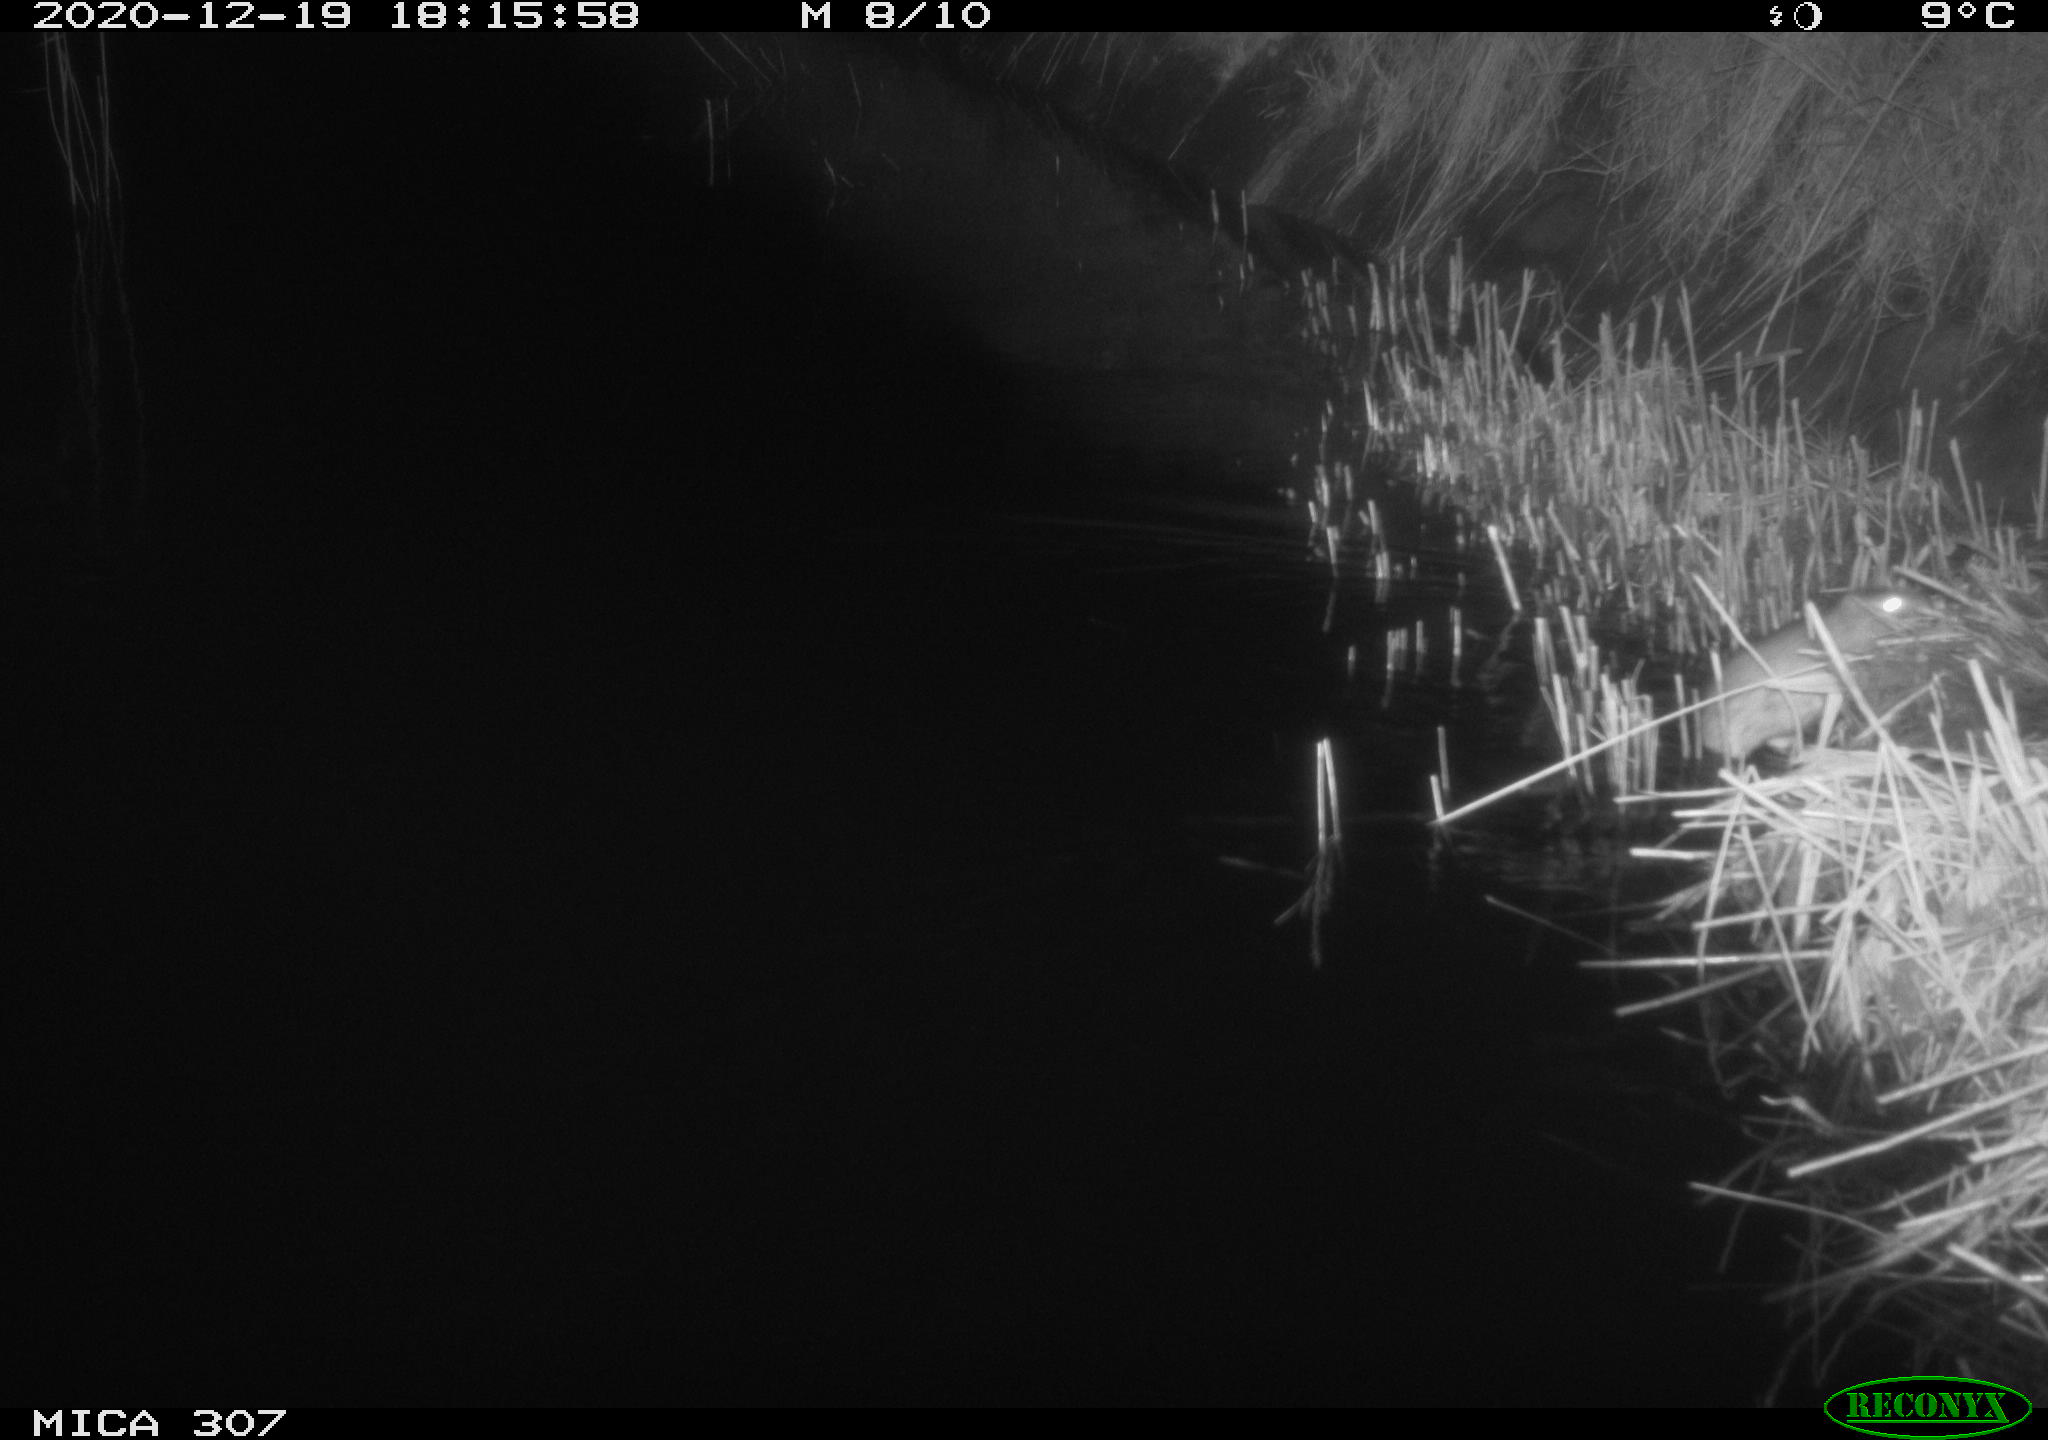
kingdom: Animalia
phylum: Chordata
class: Mammalia
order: Rodentia
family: Muridae
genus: Rattus
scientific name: Rattus norvegicus
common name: Brown rat
